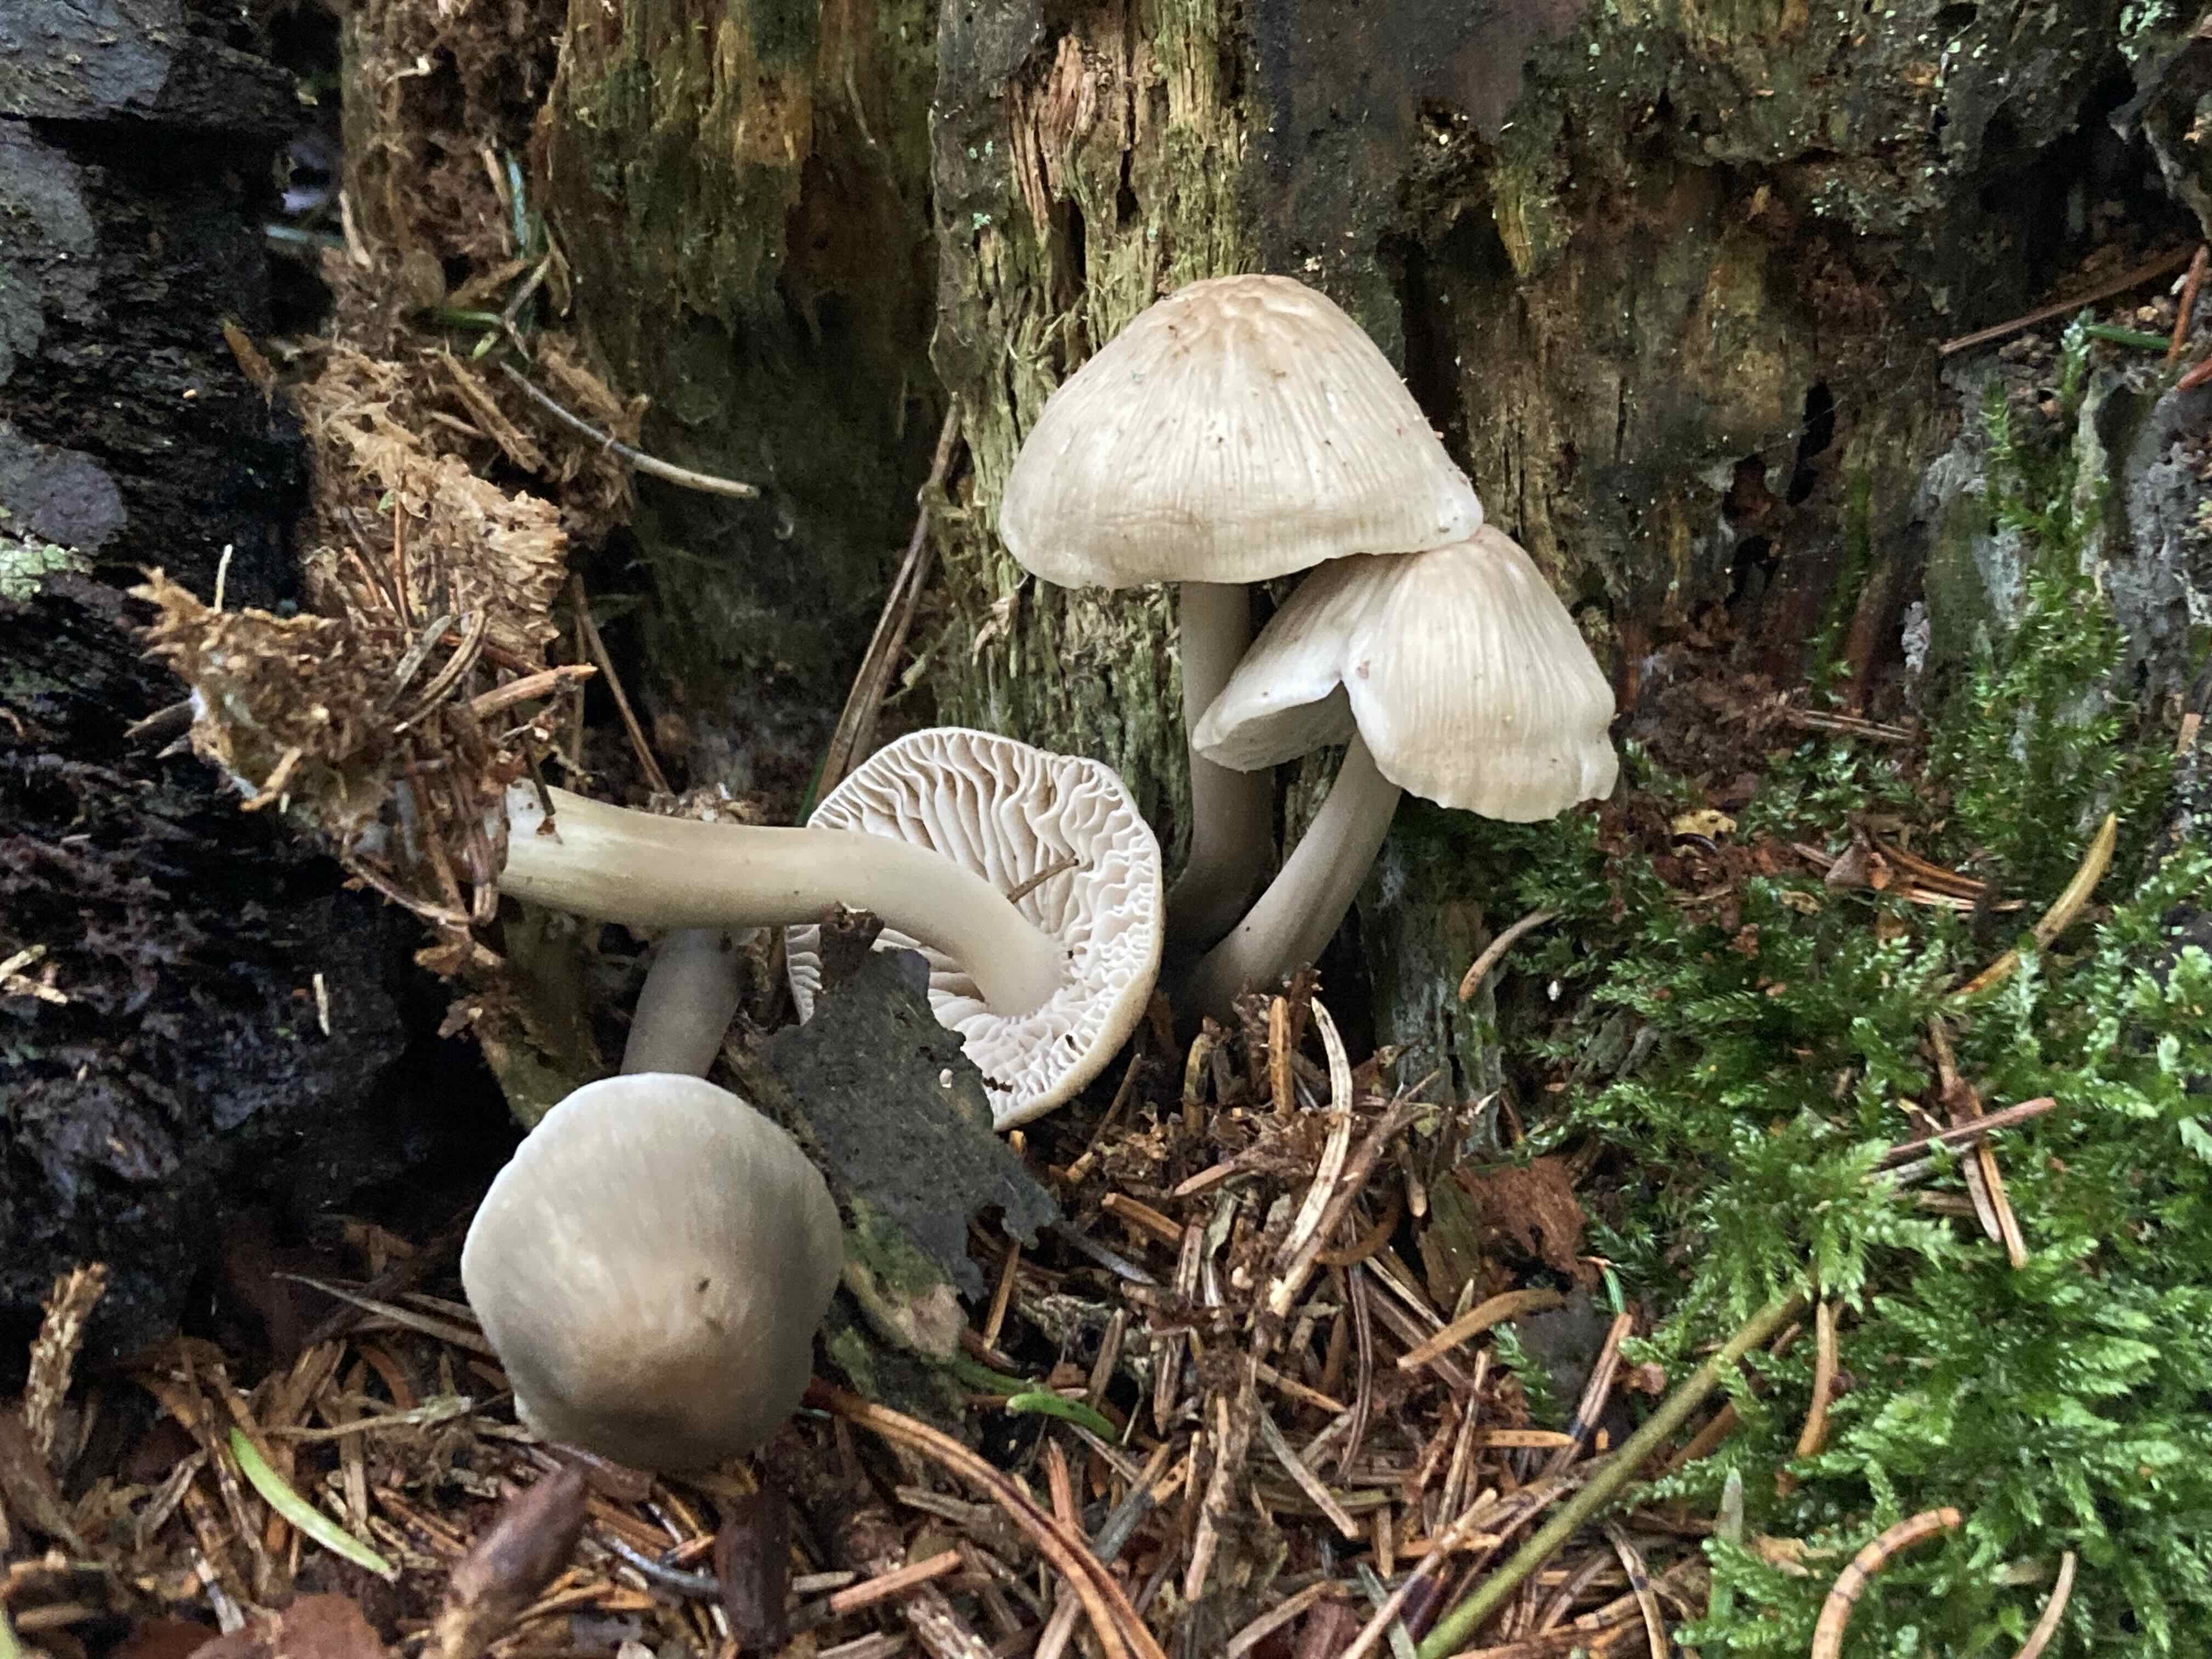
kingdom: Fungi
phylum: Basidiomycota
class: Agaricomycetes
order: Agaricales
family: Mycenaceae
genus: Mycena
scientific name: Mycena galericulata
